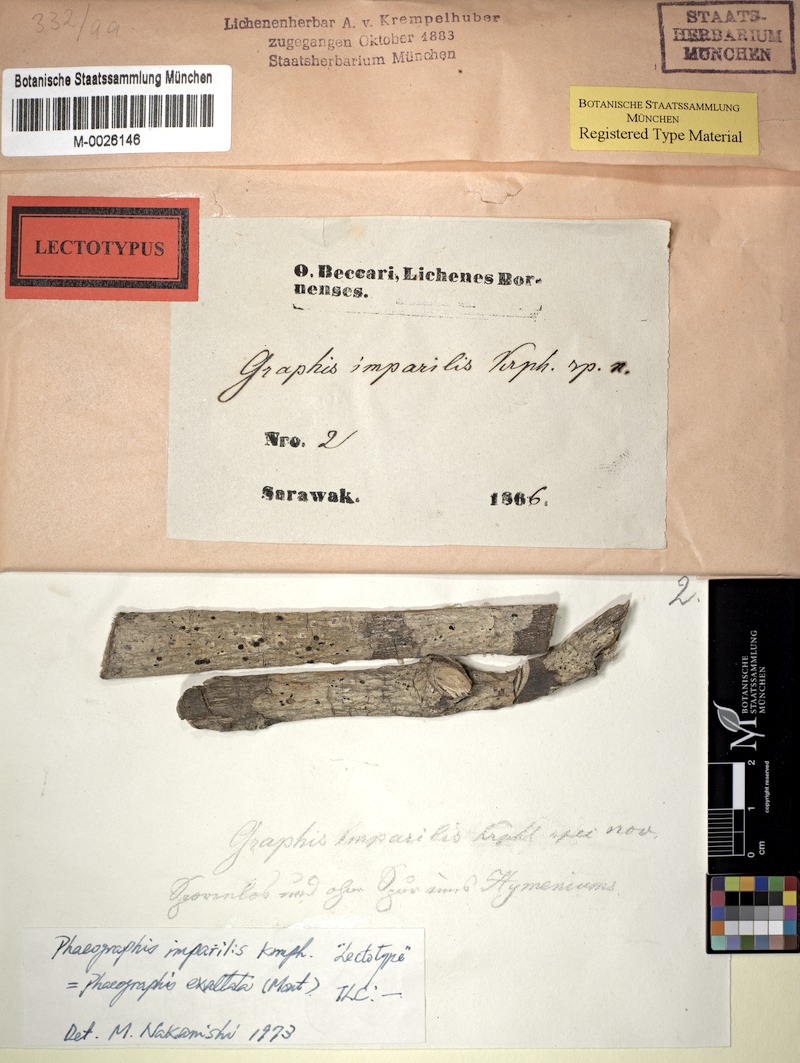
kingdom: Fungi
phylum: Ascomycota
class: Lecanoromycetes
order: Ostropales
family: Graphidaceae
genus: Phaeographis
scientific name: Phaeographis imparilis
